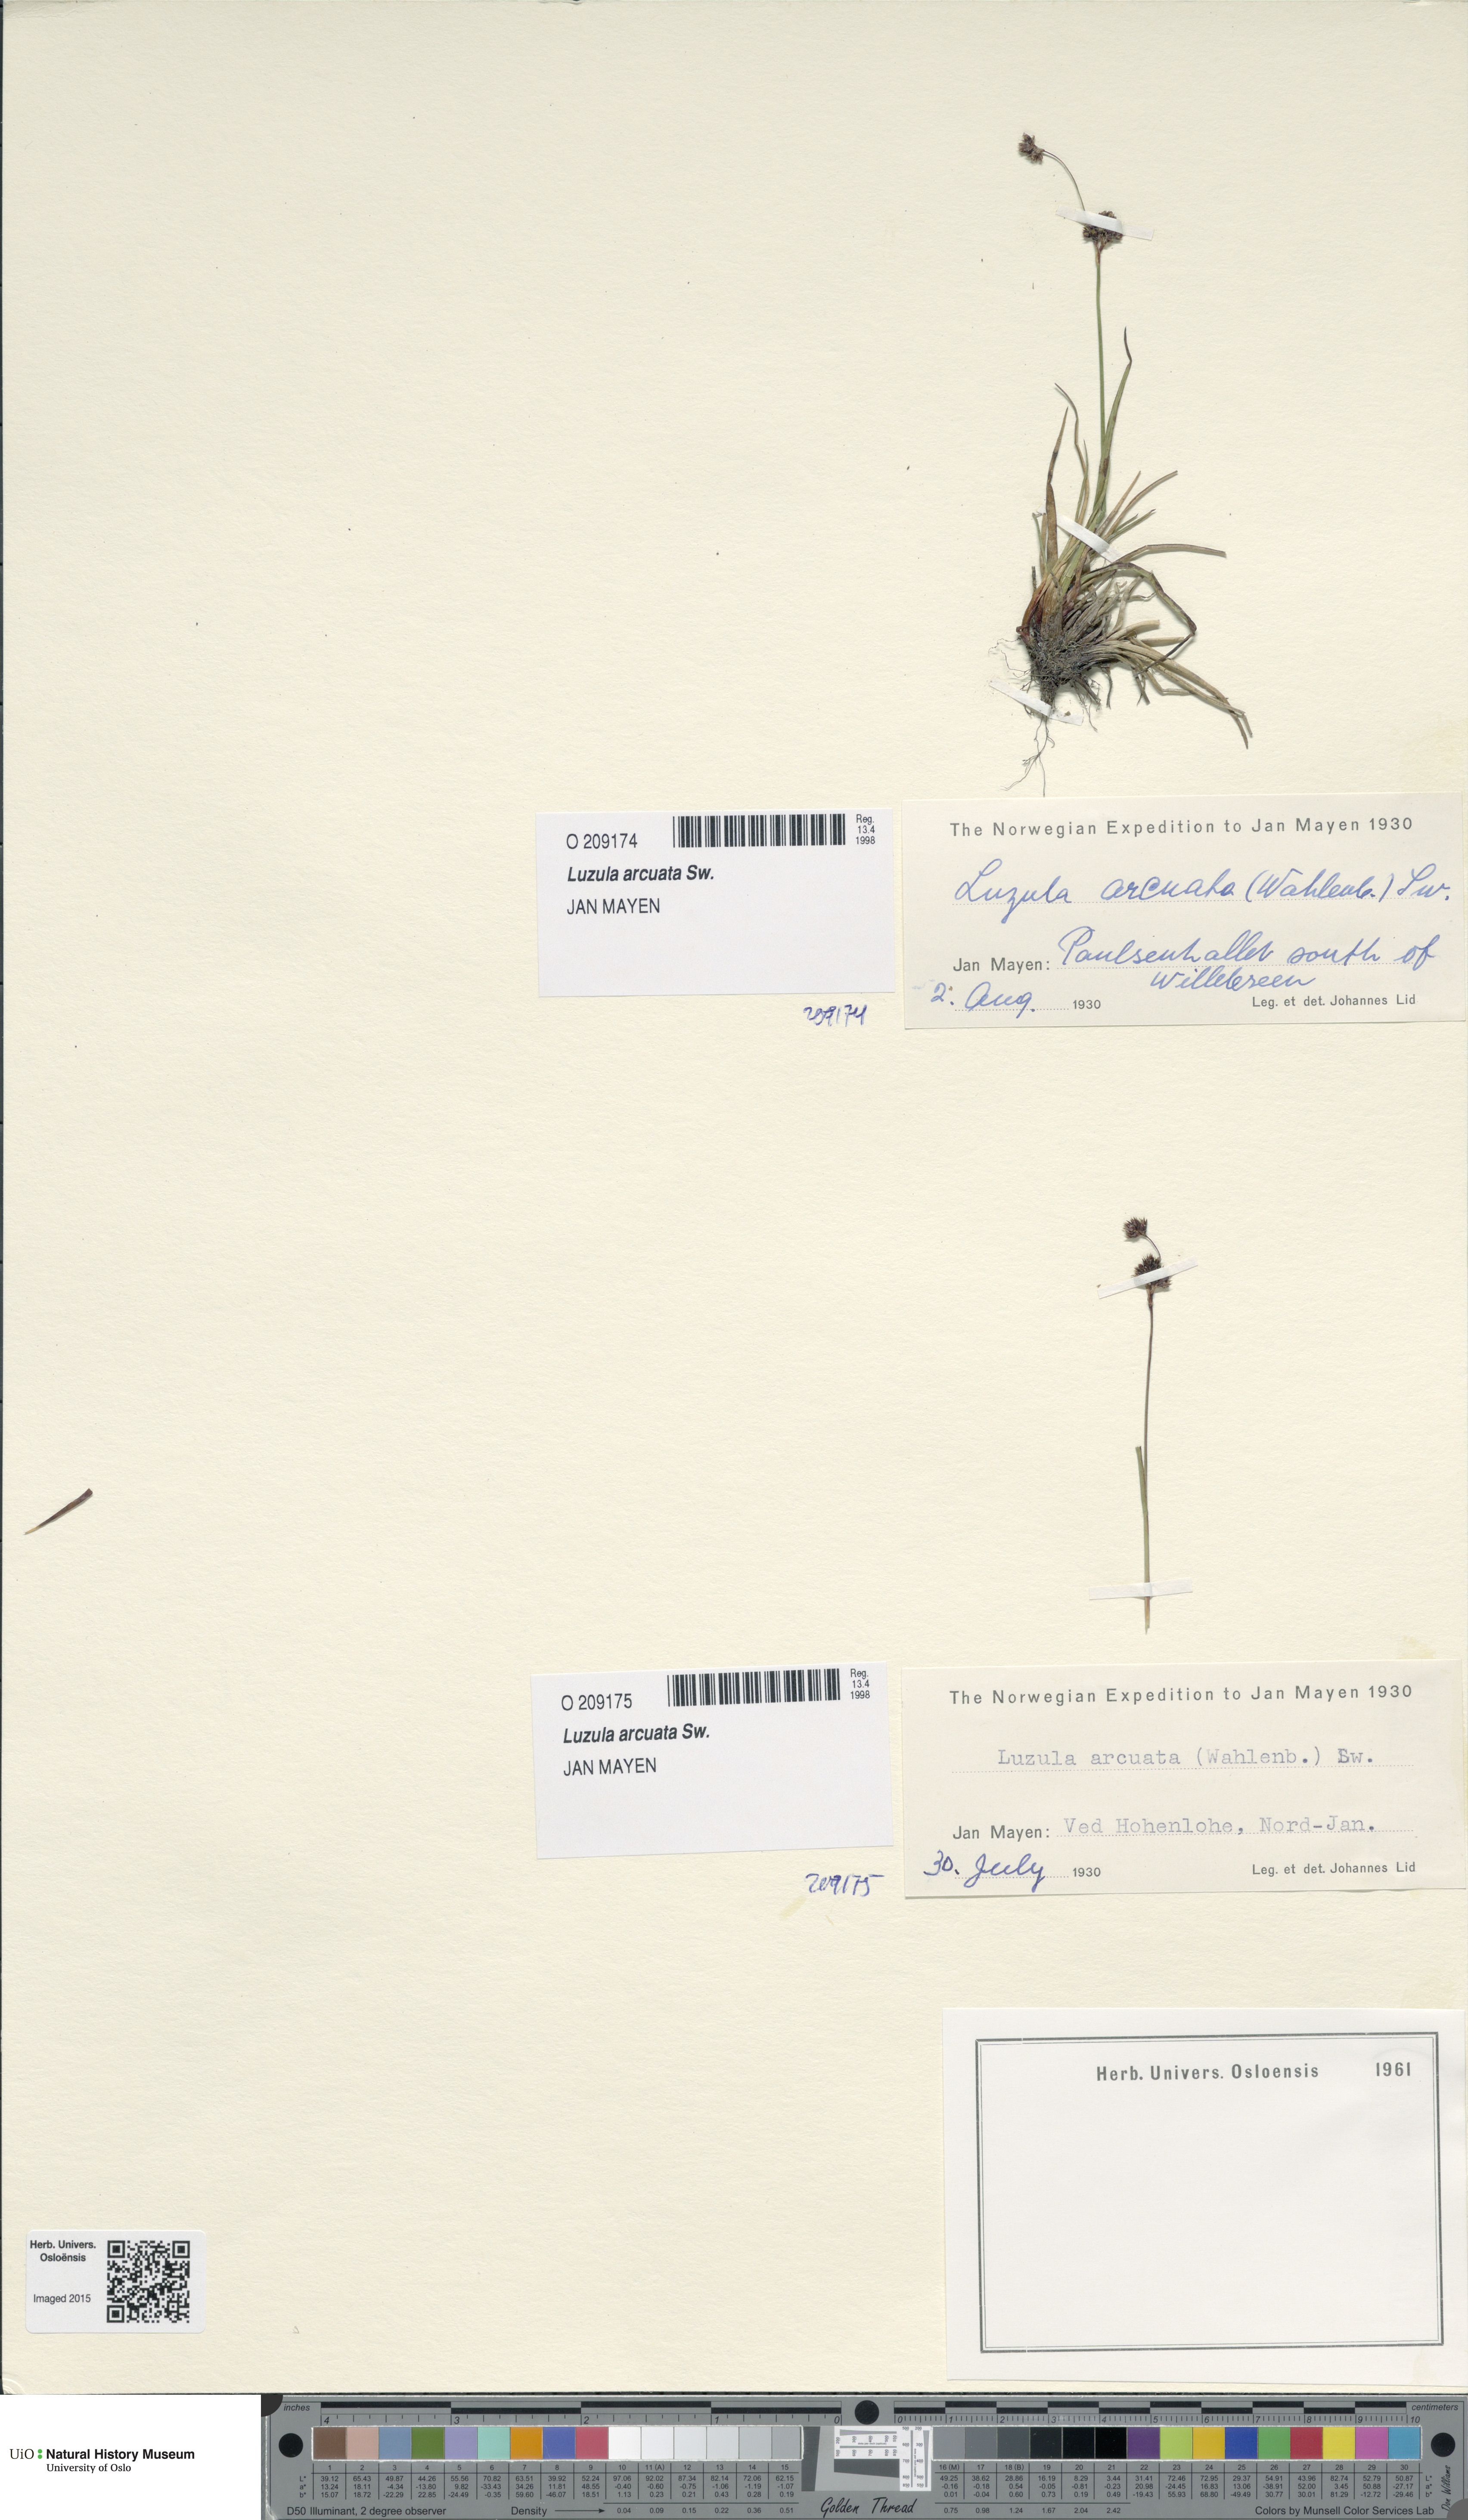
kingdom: Plantae
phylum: Tracheophyta
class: Liliopsida
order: Poales
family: Juncaceae
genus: Luzula
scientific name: Luzula arcuata
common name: Curved wood-rush
